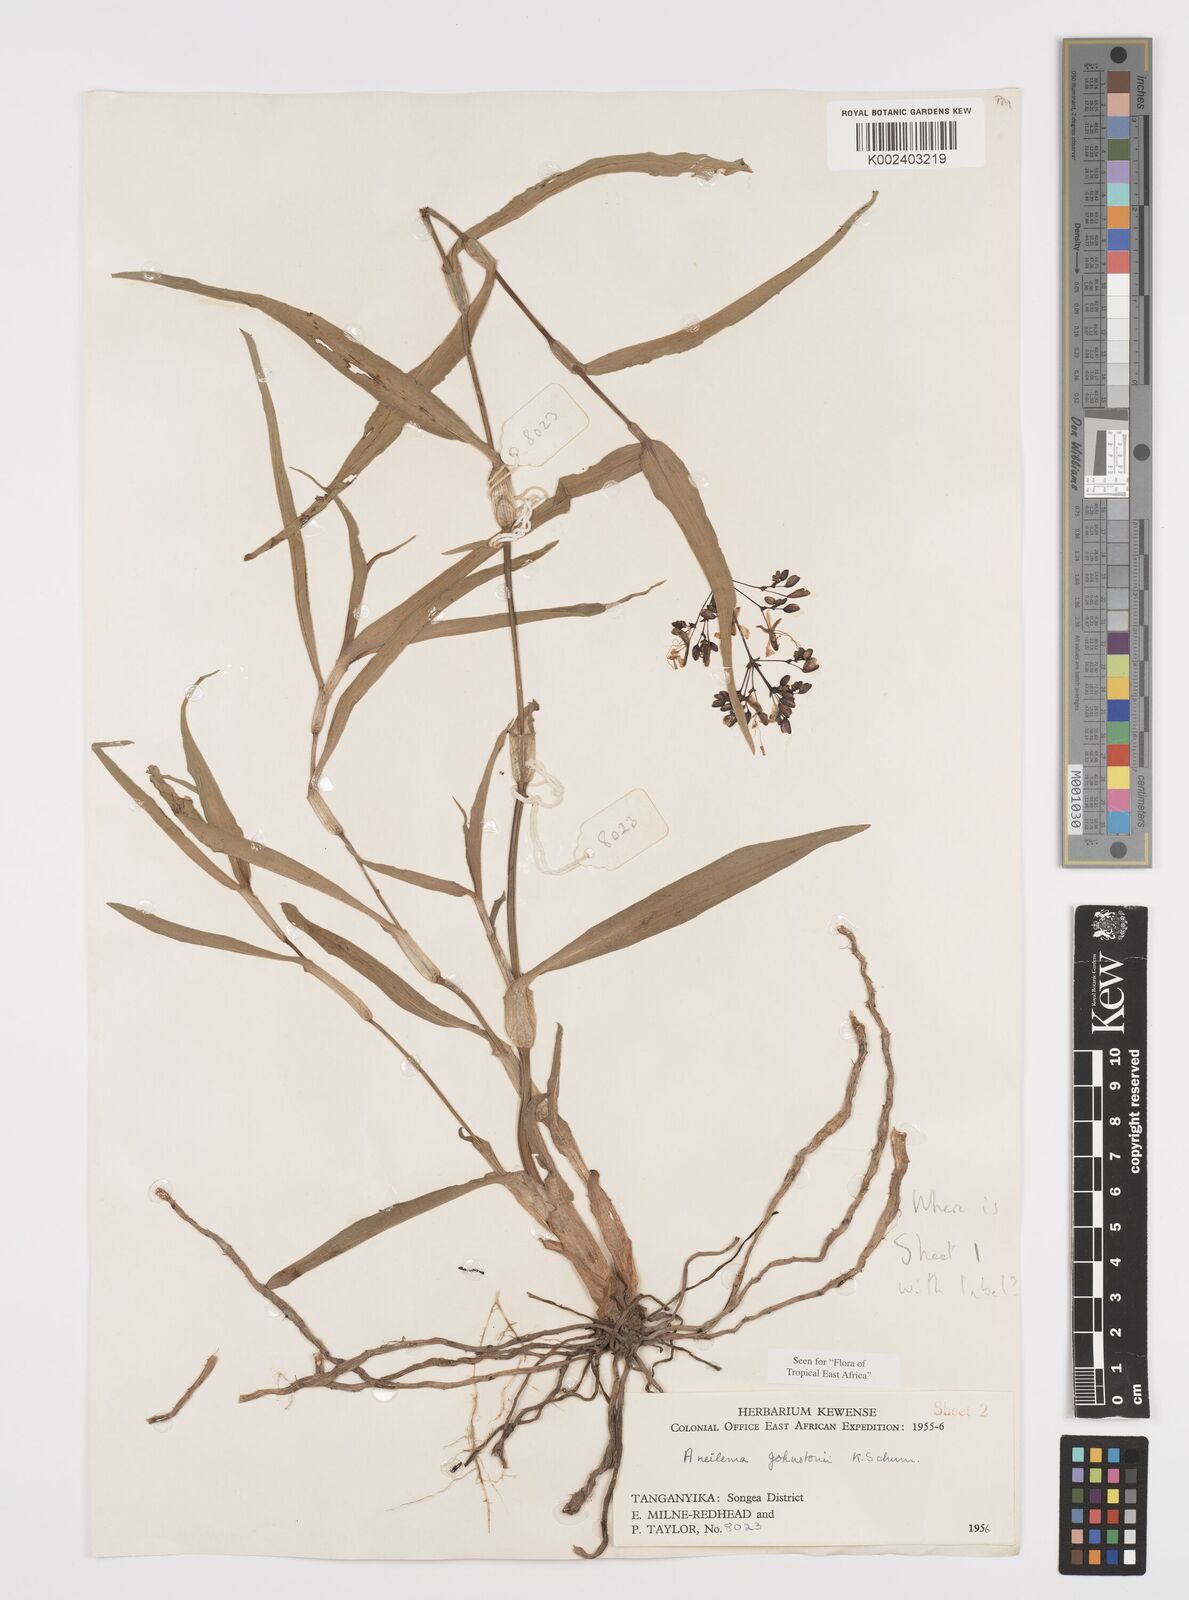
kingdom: Plantae
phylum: Tracheophyta
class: Liliopsida
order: Commelinales
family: Commelinaceae
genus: Aneilema
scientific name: Aneilema johnstonii
